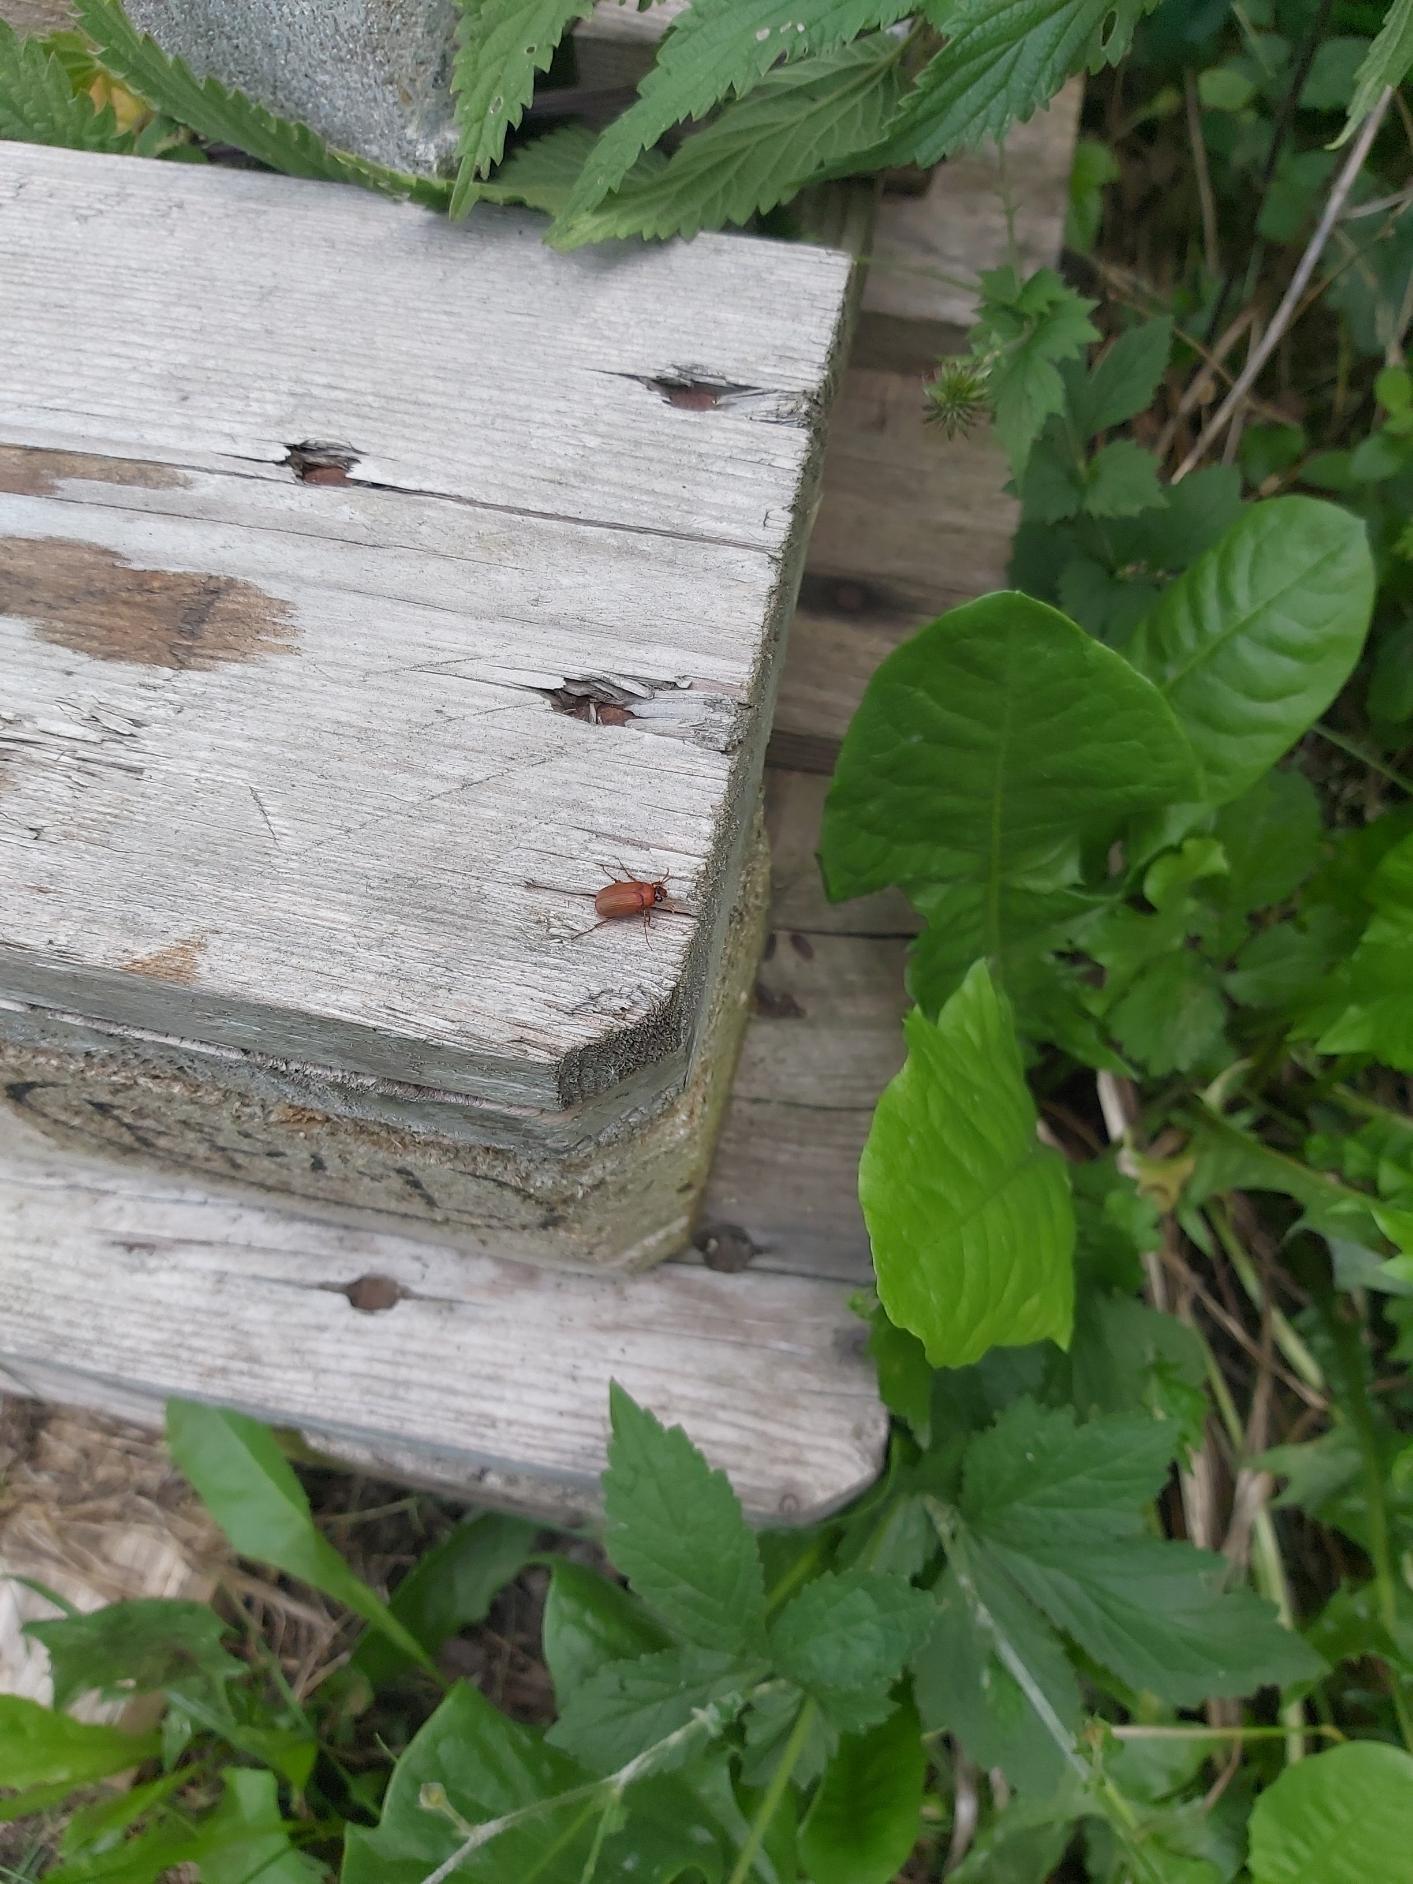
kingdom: Animalia
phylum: Arthropoda
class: Insecta
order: Coleoptera
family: Scarabaeidae
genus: Serica
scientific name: Serica brunnea
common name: Natoldenborre
